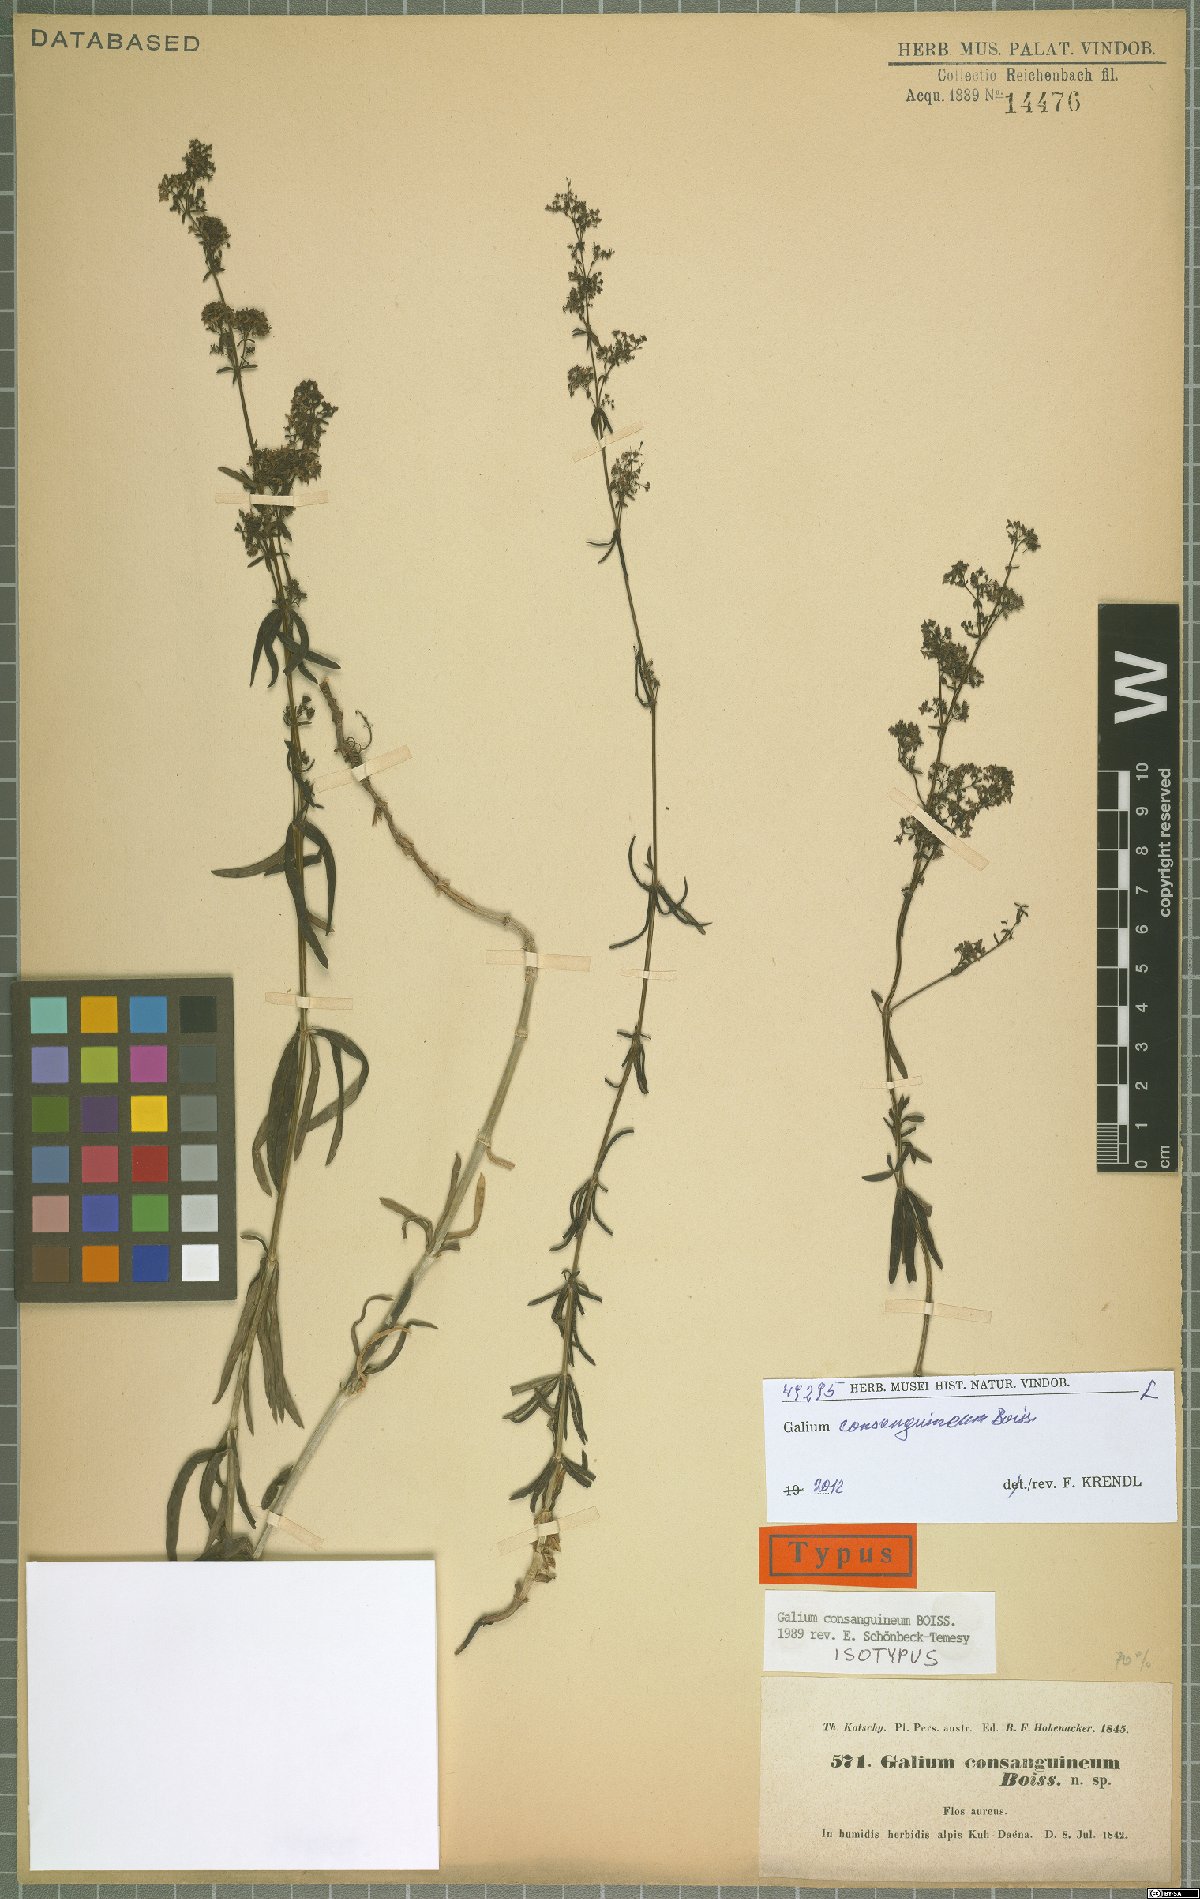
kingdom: Plantae
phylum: Tracheophyta
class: Magnoliopsida
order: Gentianales
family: Rubiaceae
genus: Galium
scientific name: Galium consanguineum
